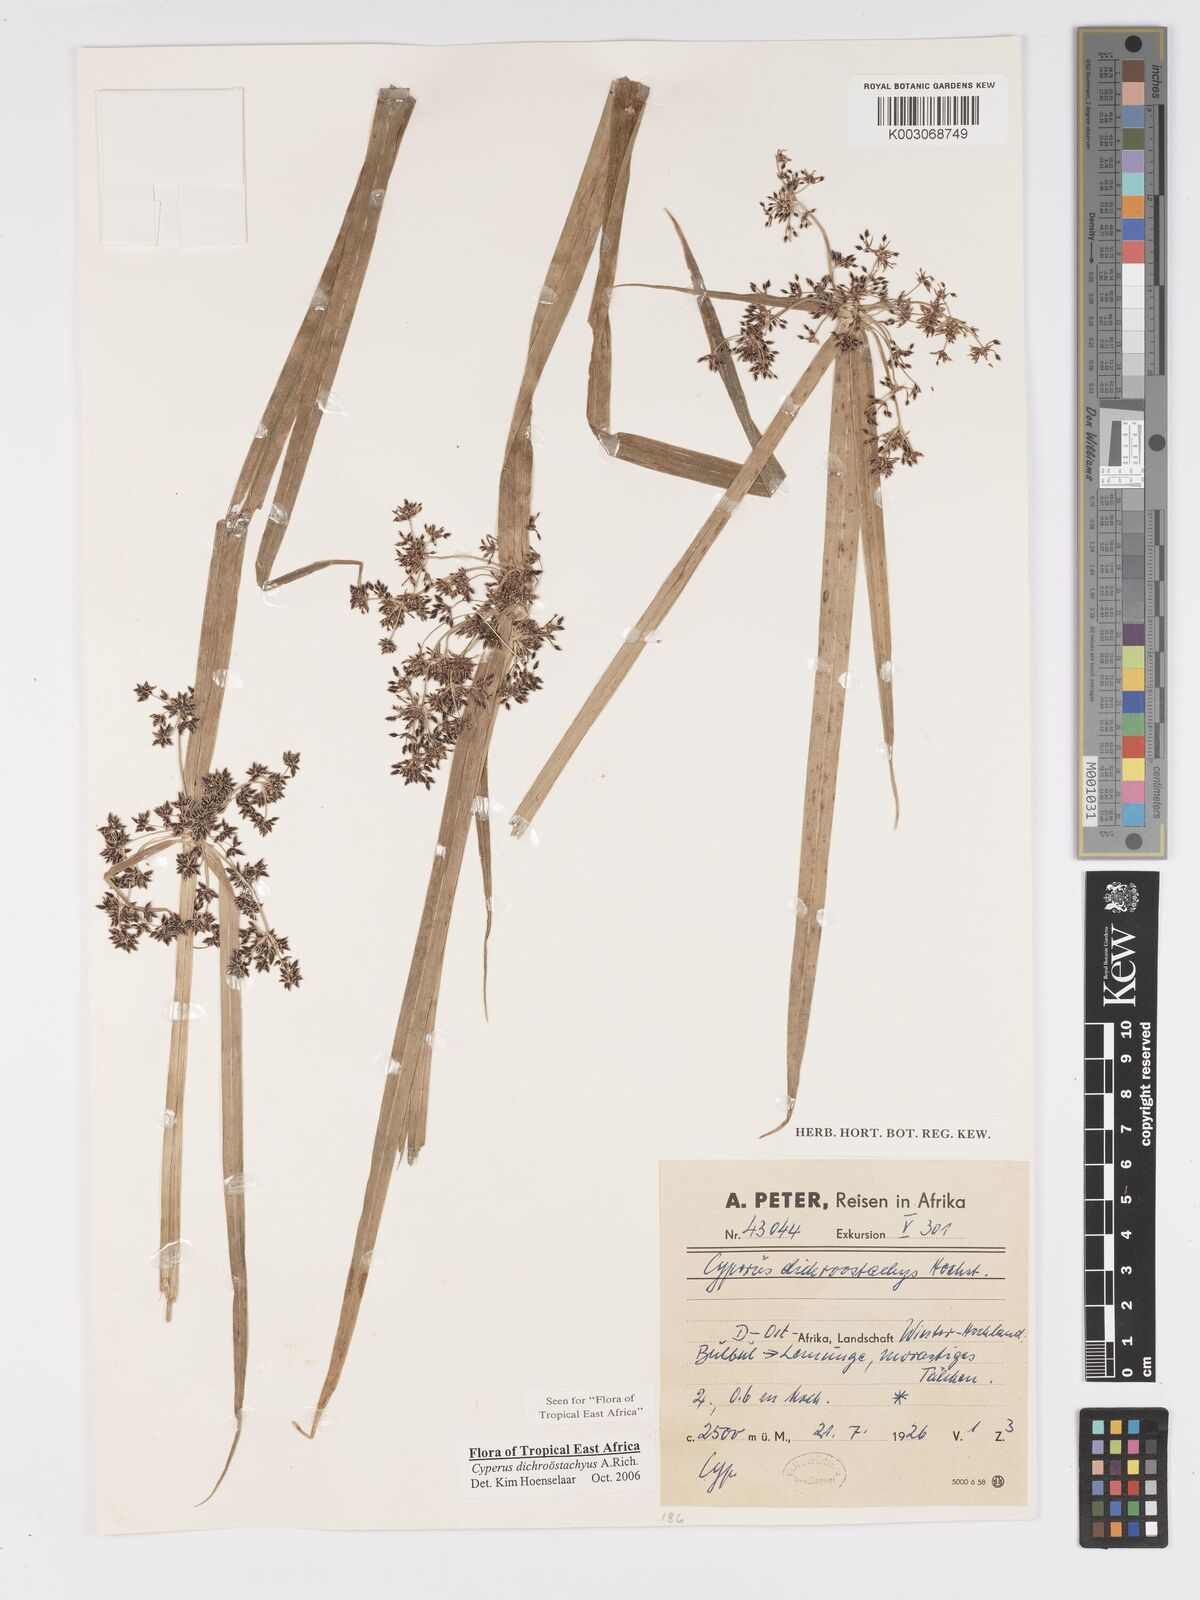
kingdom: Plantae
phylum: Tracheophyta
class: Liliopsida
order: Poales
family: Cyperaceae
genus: Cyperus
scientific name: Cyperus dichrostachyus
